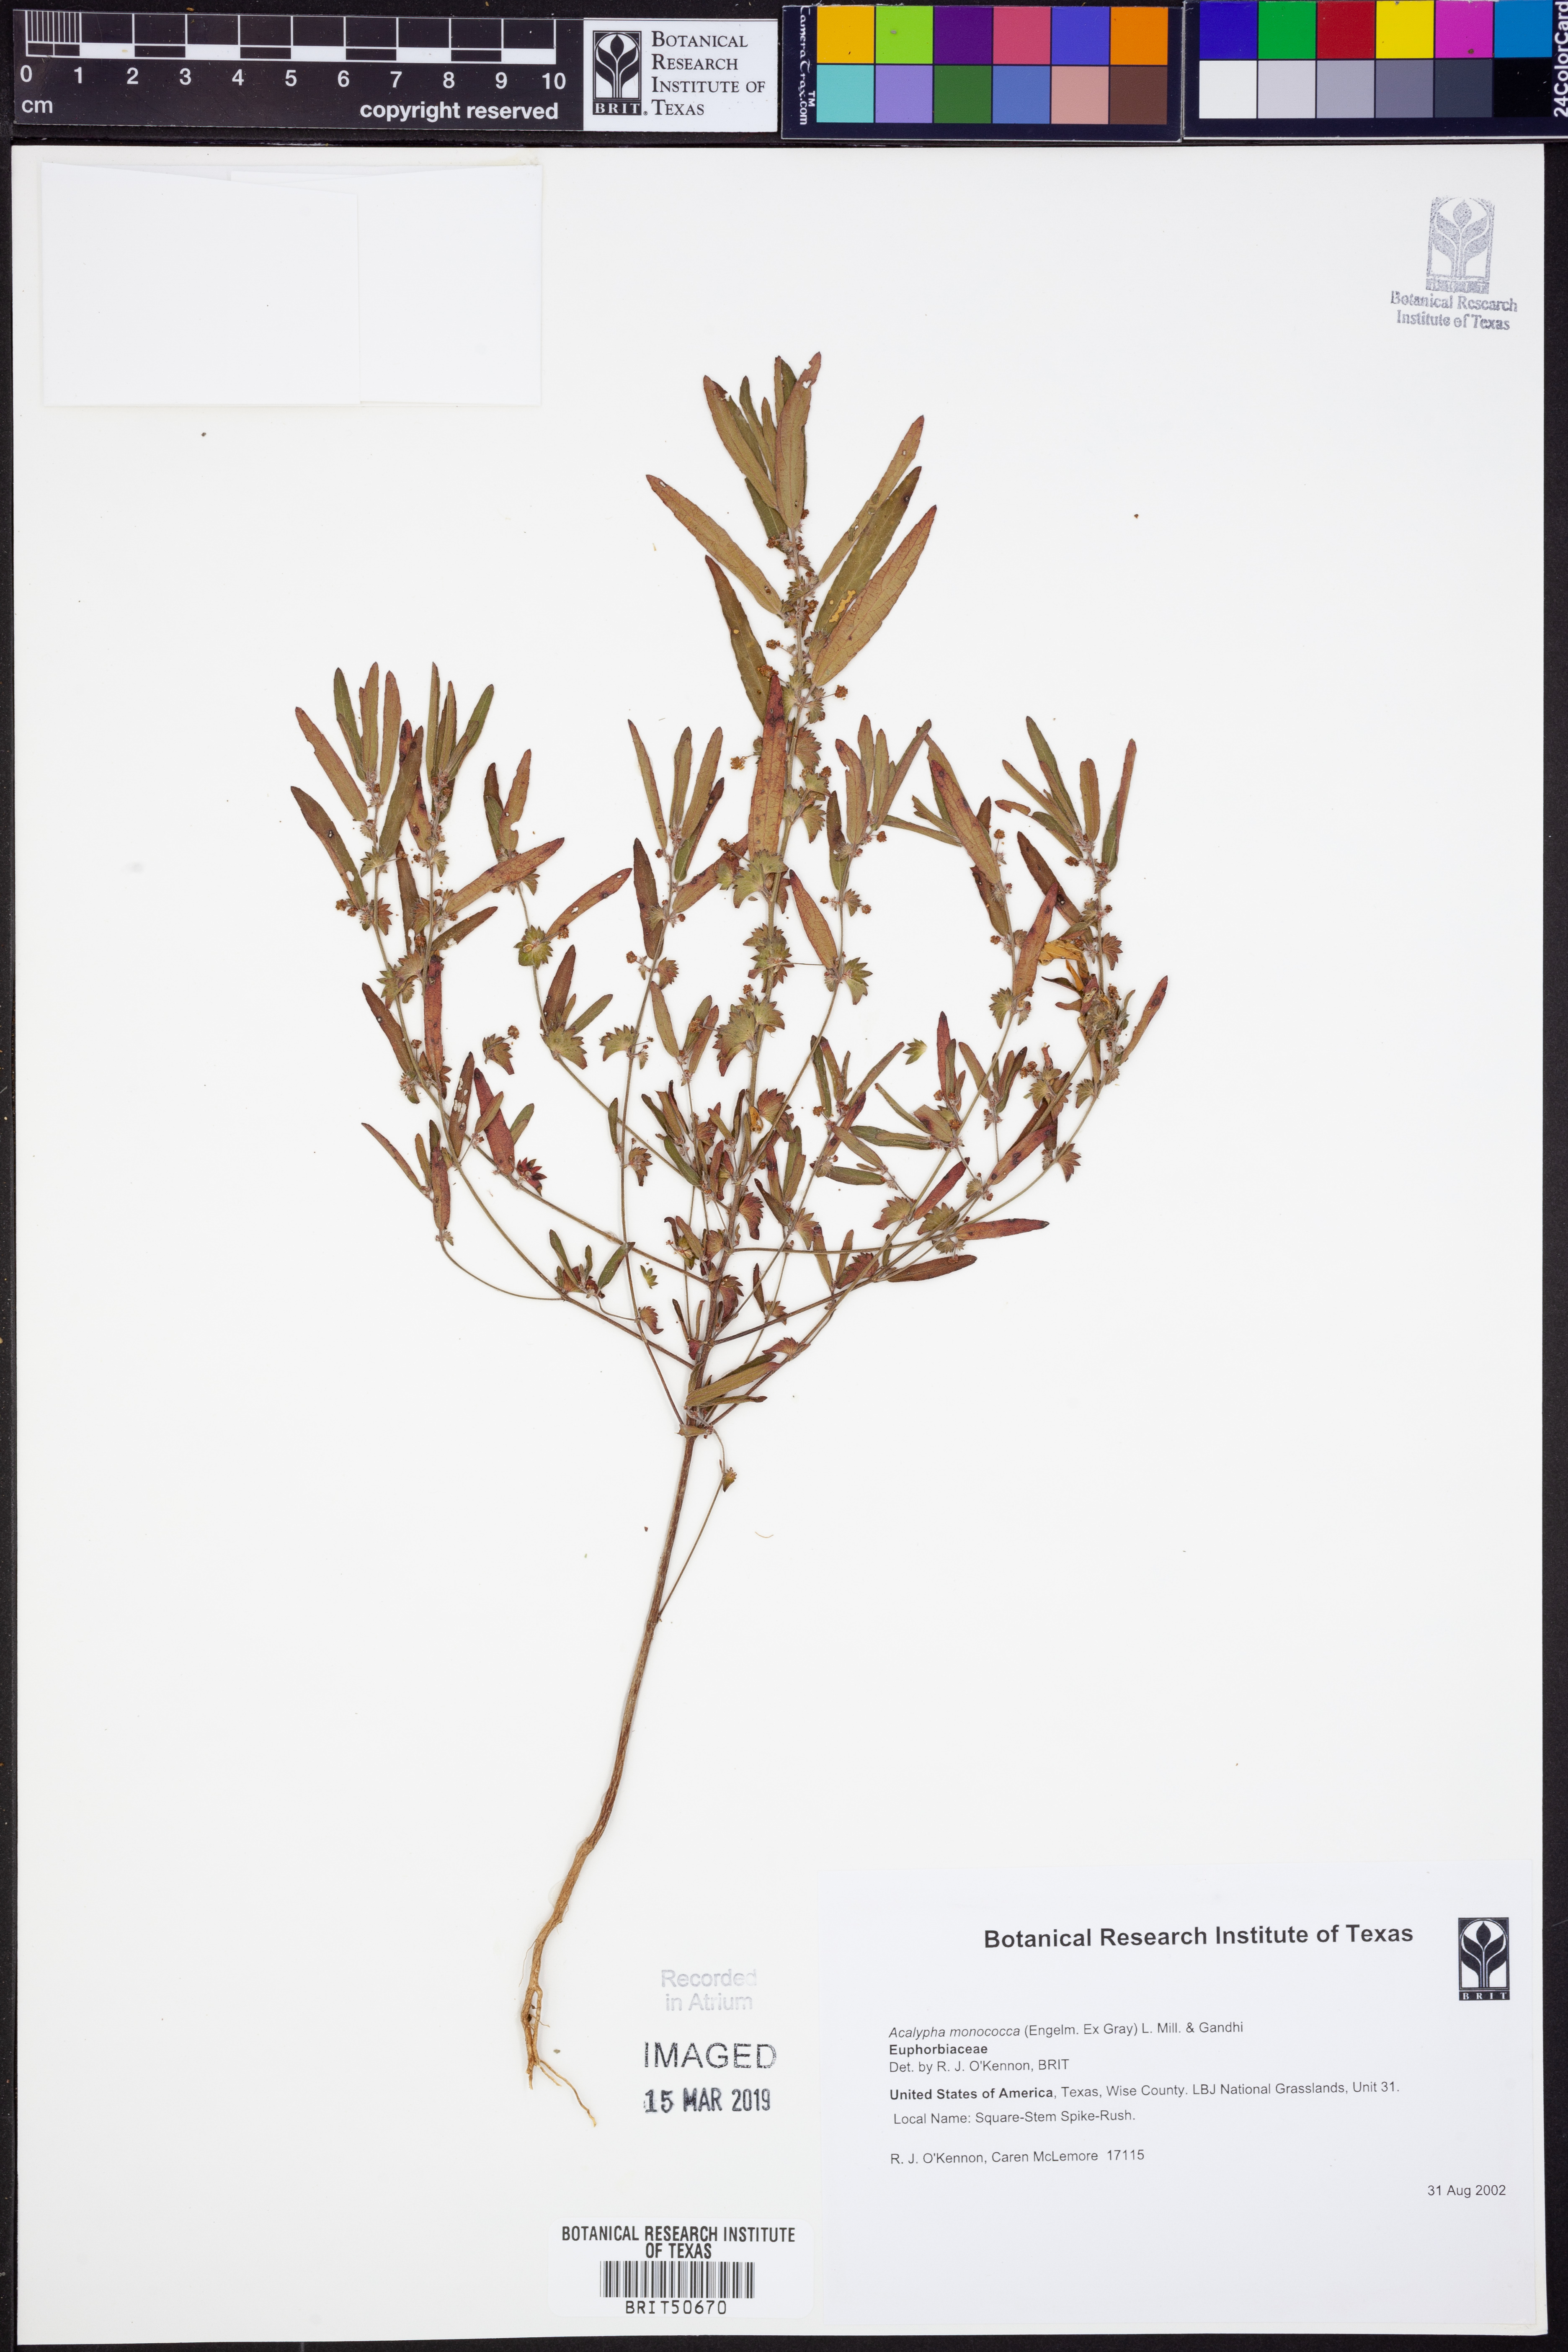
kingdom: Plantae
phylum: Tracheophyta
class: Magnoliopsida
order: Malpighiales
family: Euphorbiaceae
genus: Acalypha
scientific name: Acalypha monococca
